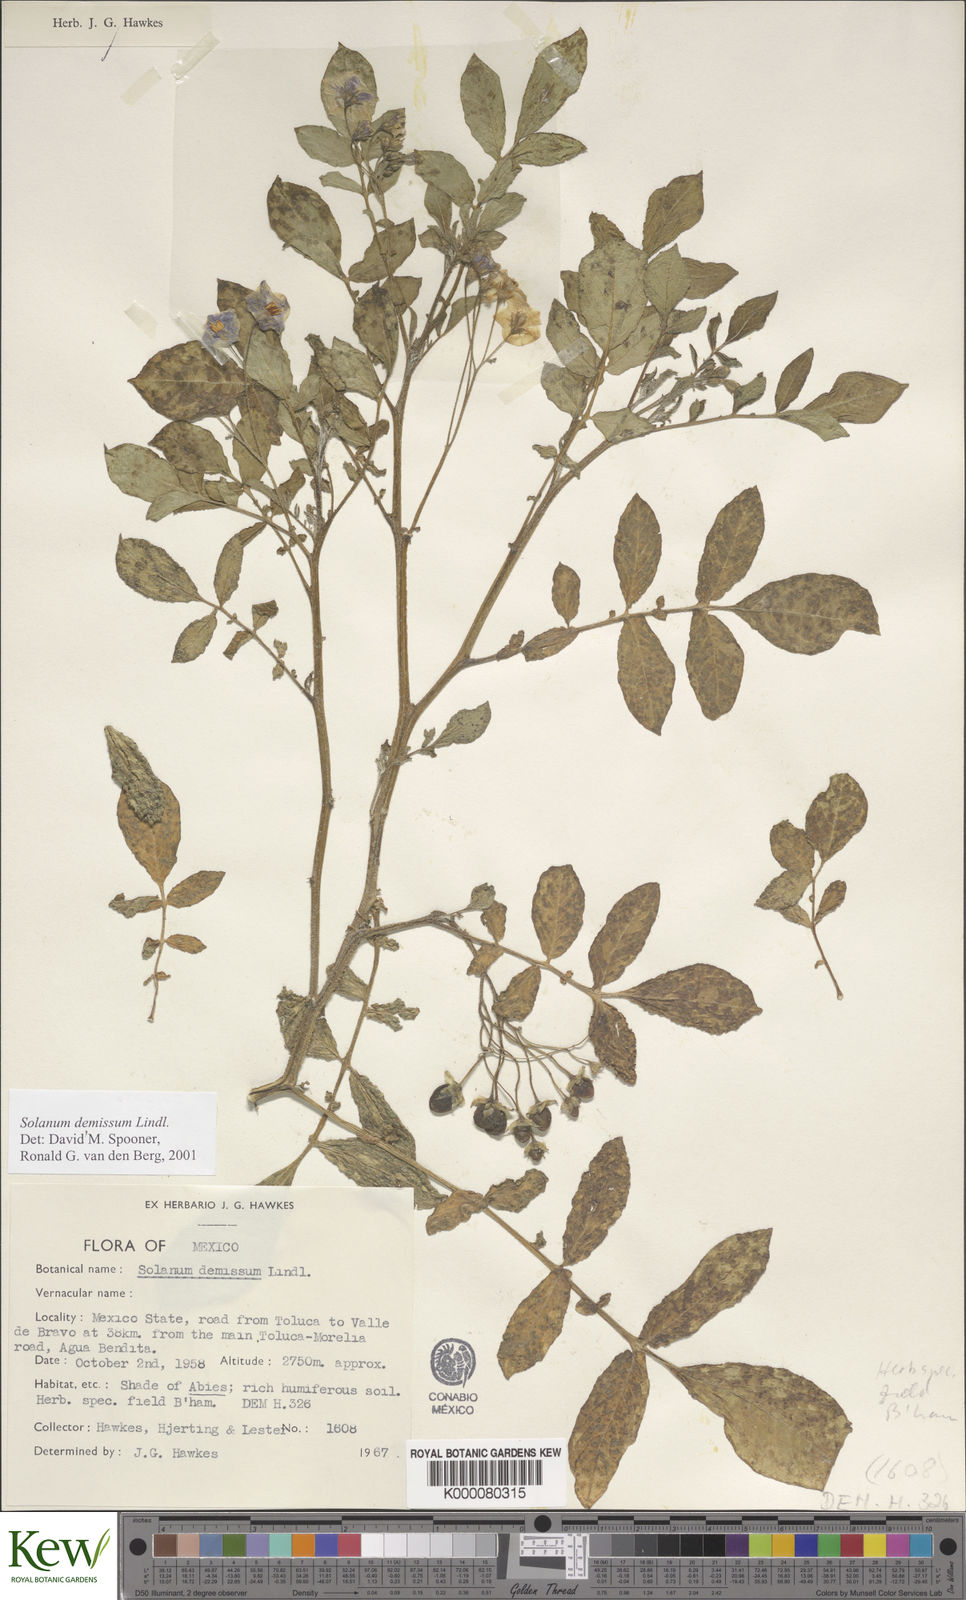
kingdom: Plantae
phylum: Tracheophyta
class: Magnoliopsida
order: Solanales
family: Solanaceae
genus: Solanum
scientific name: Solanum demissum
